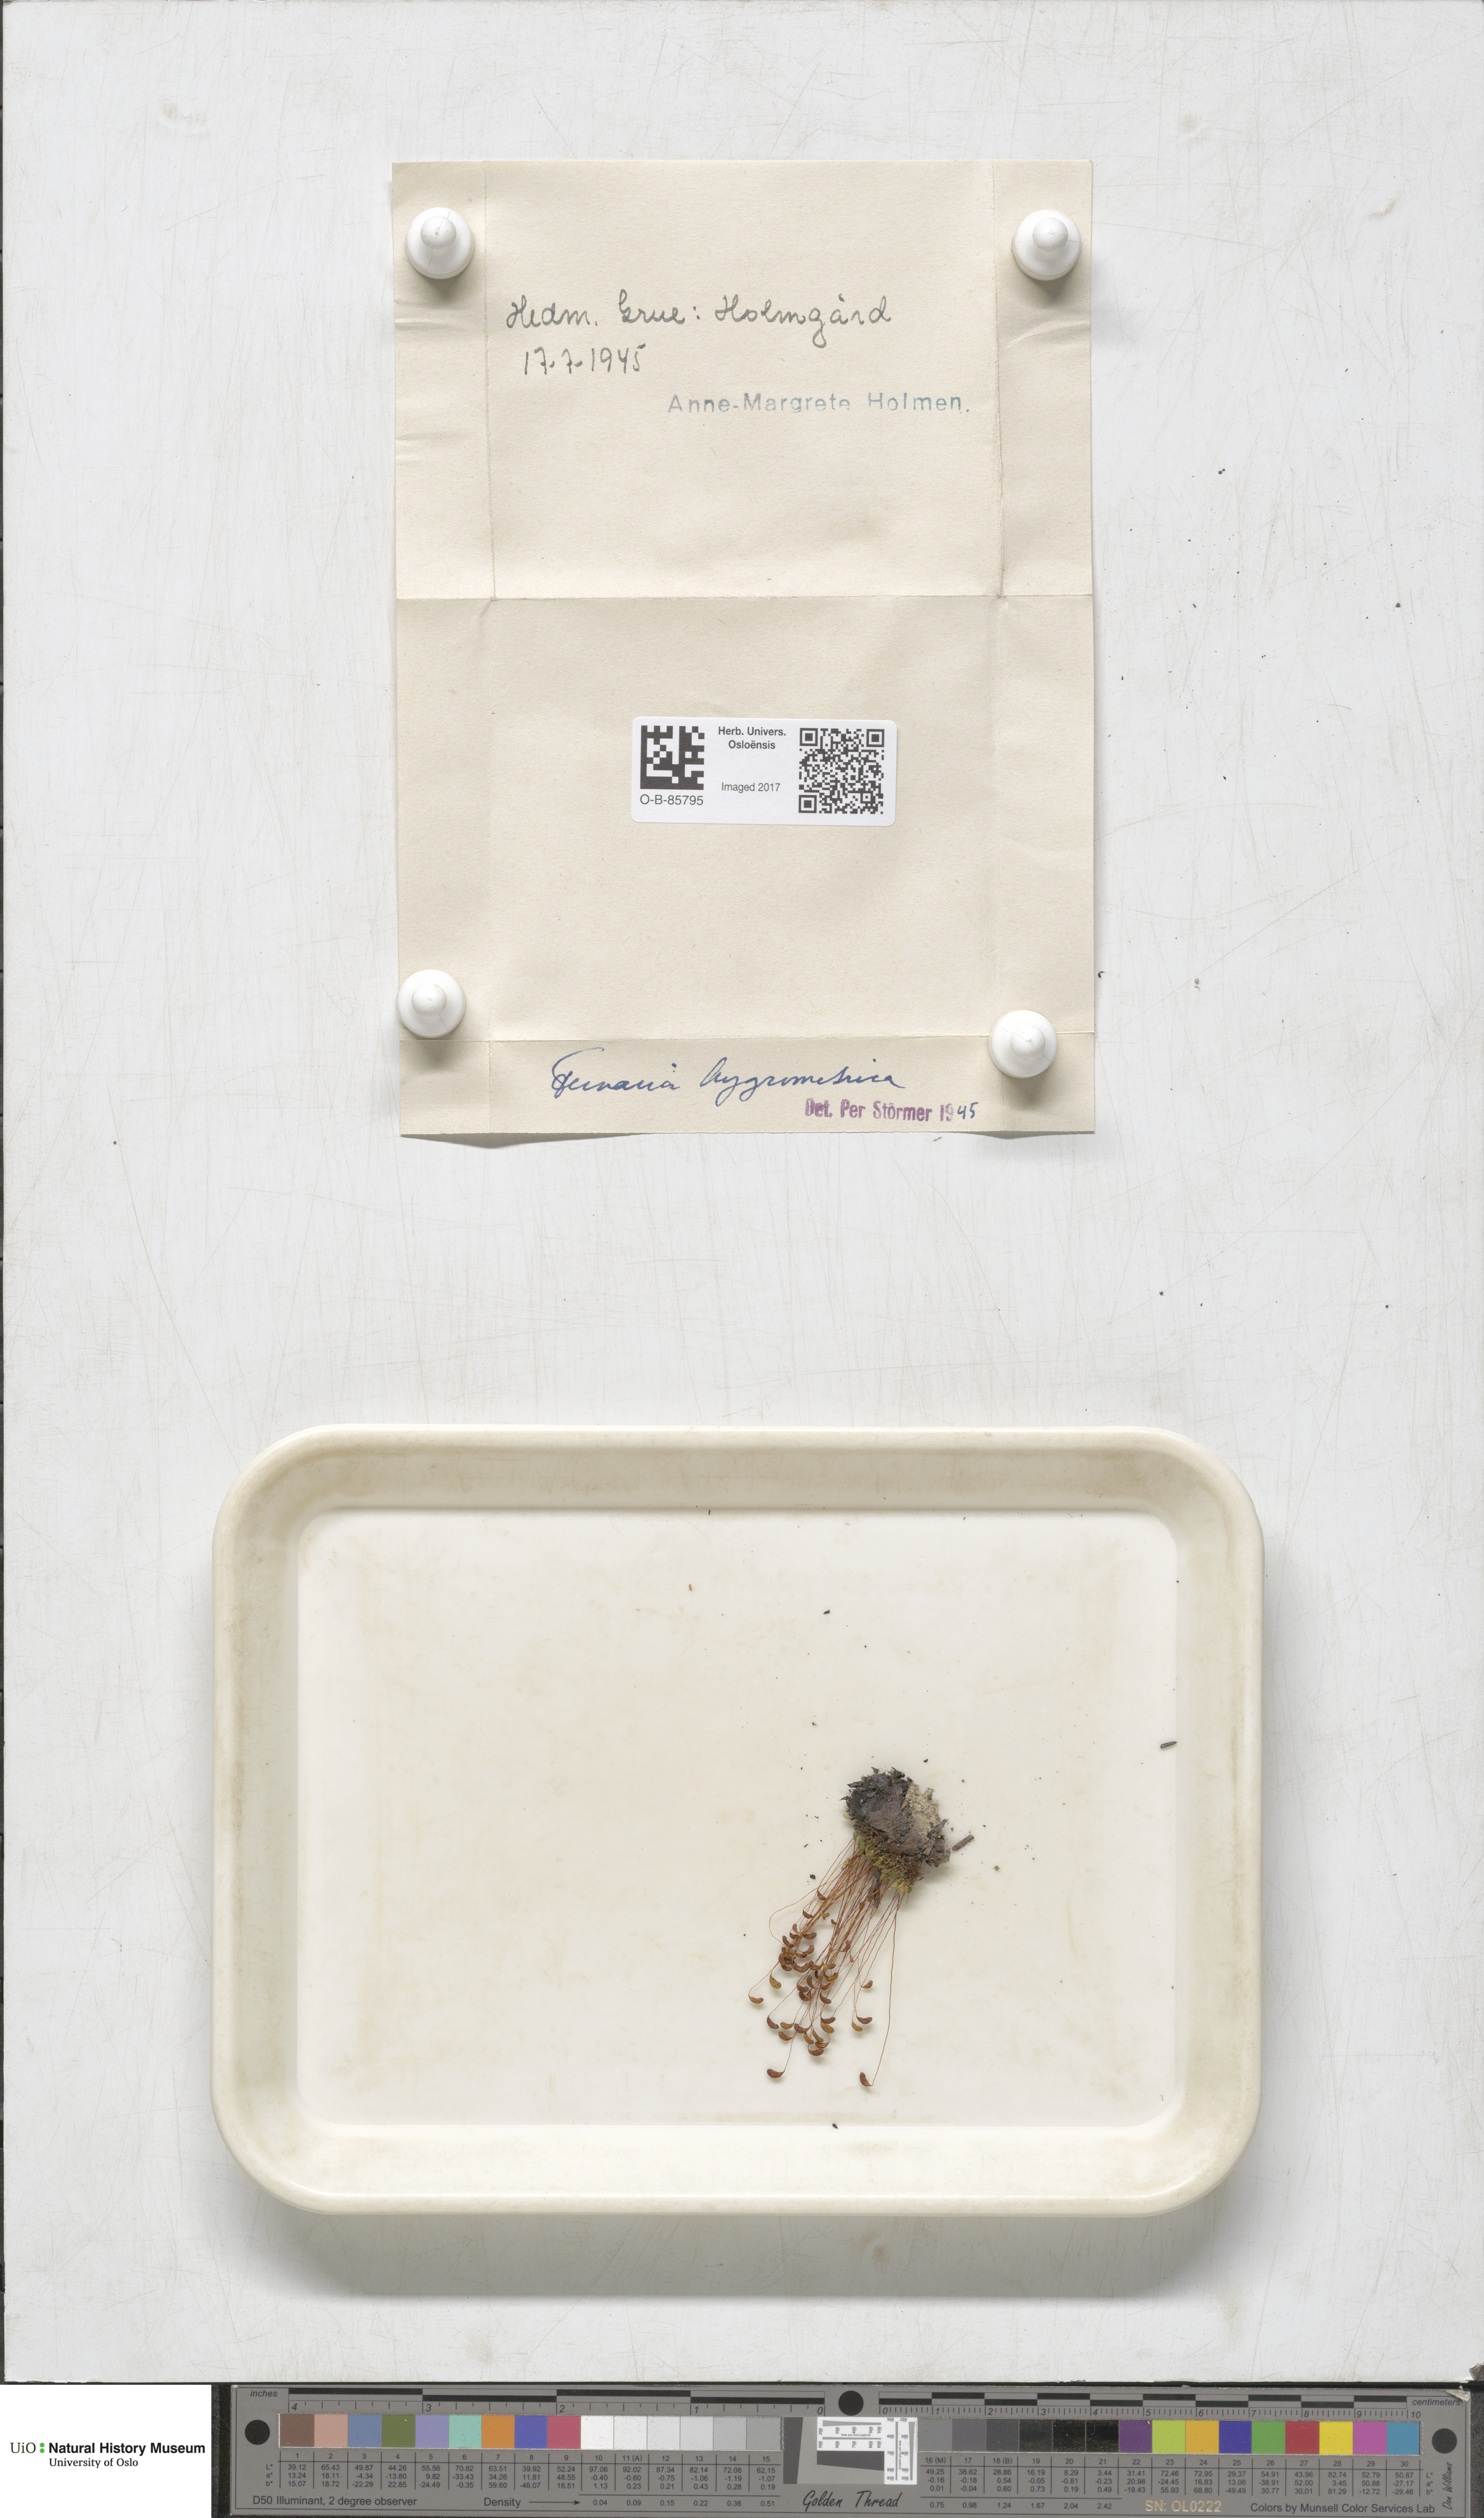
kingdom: Plantae
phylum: Bryophyta
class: Bryopsida
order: Funariales
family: Funariaceae
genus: Funaria
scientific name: Funaria hygrometrica
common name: Common cord moss
